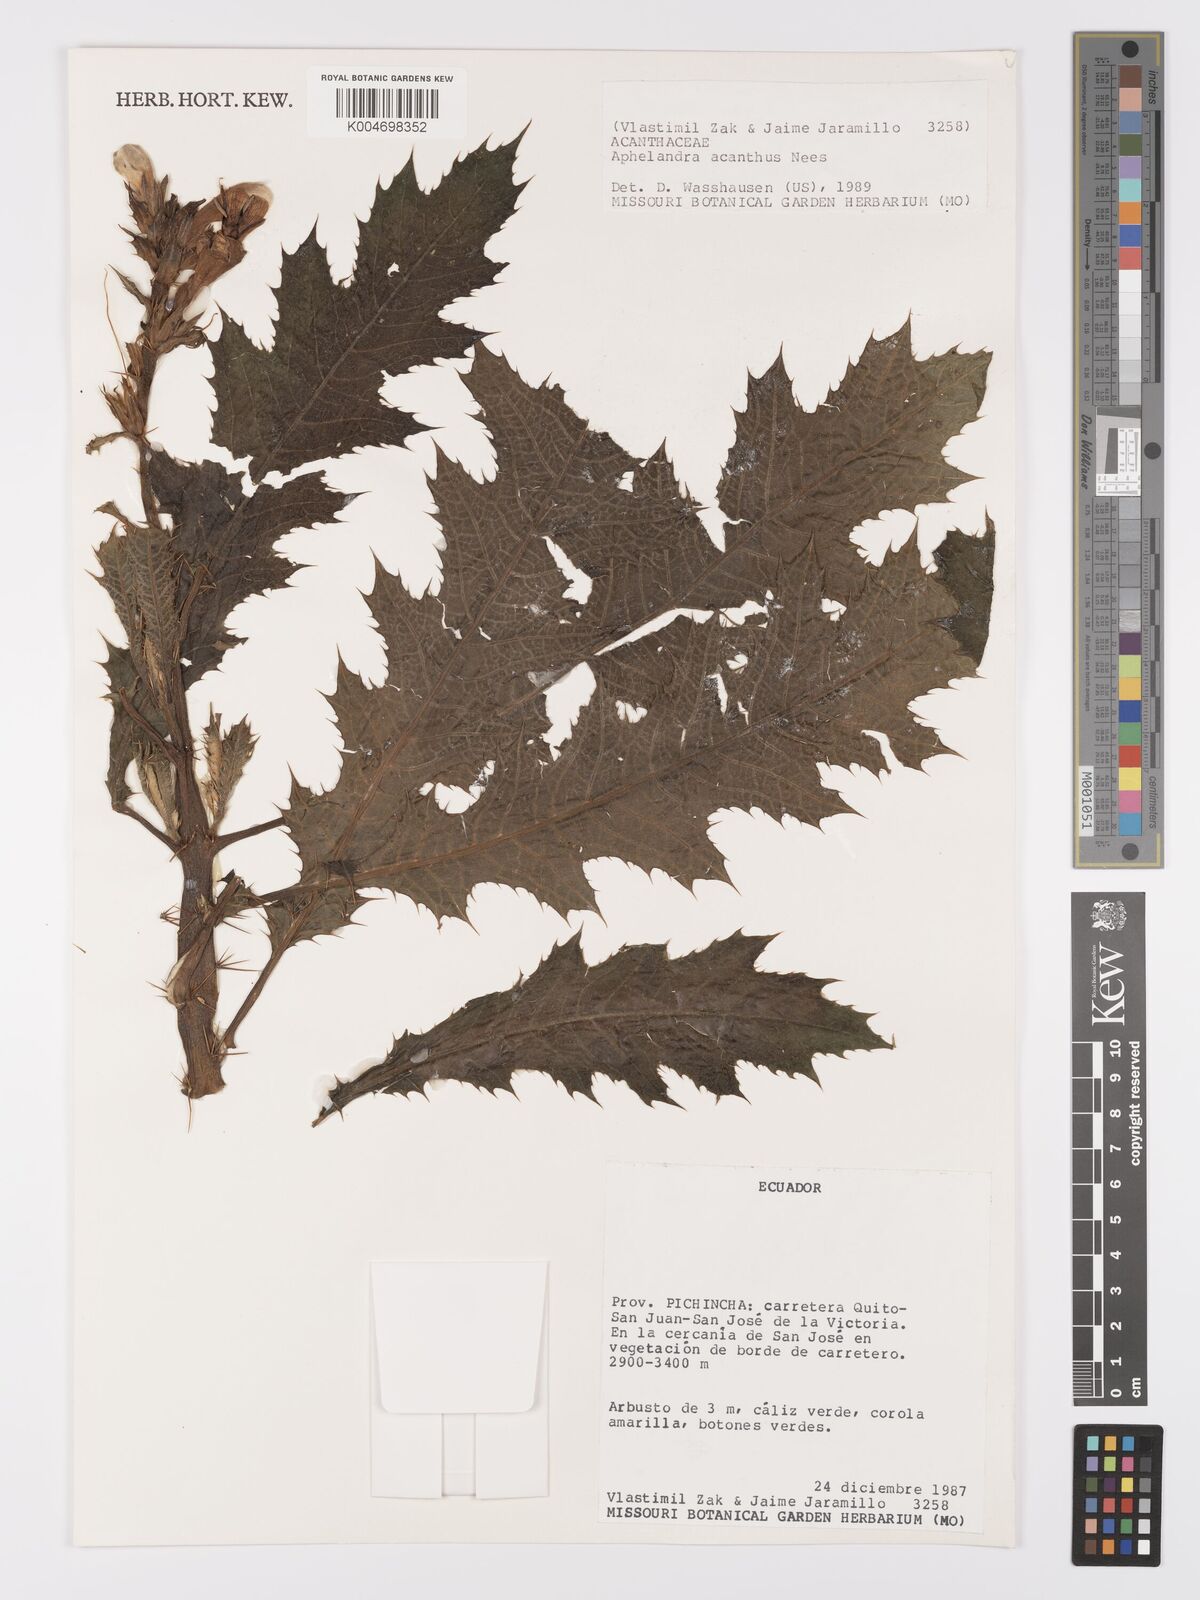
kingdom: Plantae
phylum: Tracheophyta
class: Magnoliopsida
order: Lamiales
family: Acanthaceae
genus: Aphelandra
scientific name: Aphelandra acanthus
